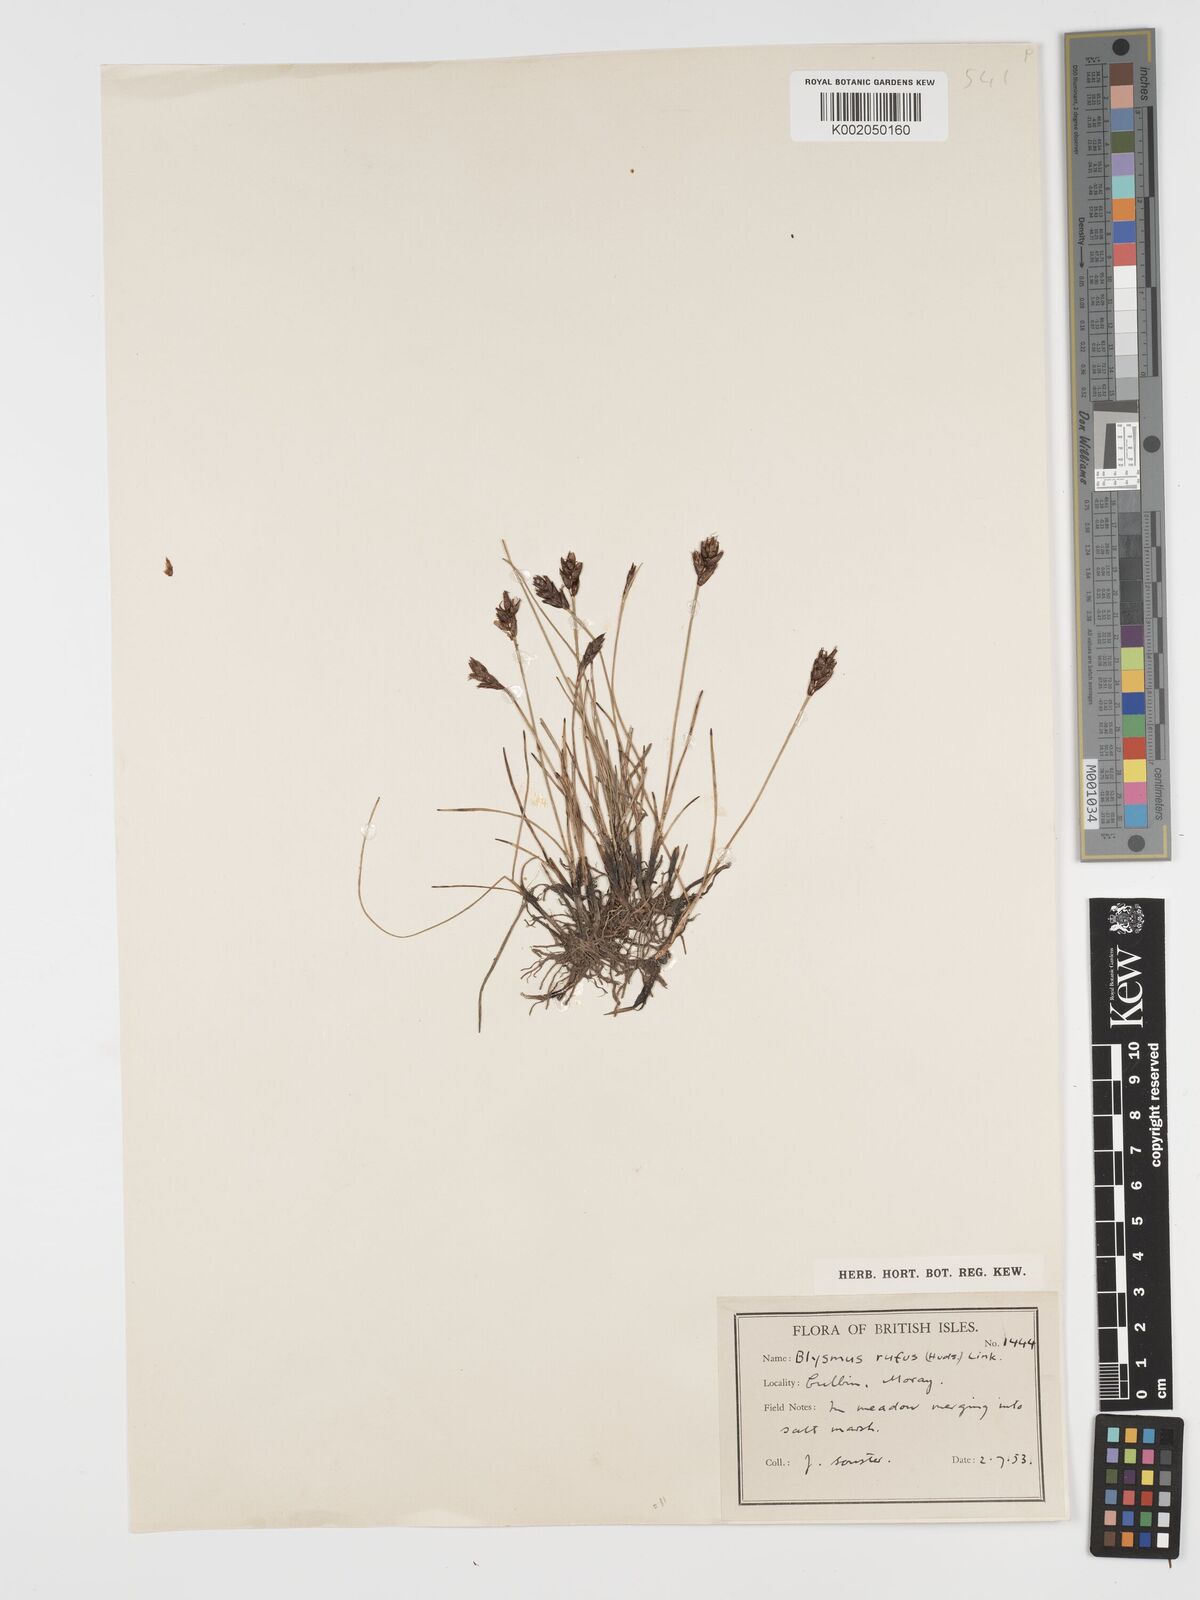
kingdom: Plantae
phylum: Tracheophyta
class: Liliopsida
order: Poales
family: Cyperaceae
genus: Blysmus
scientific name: Blysmus rufus
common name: Saltmarsh flat-sedge
